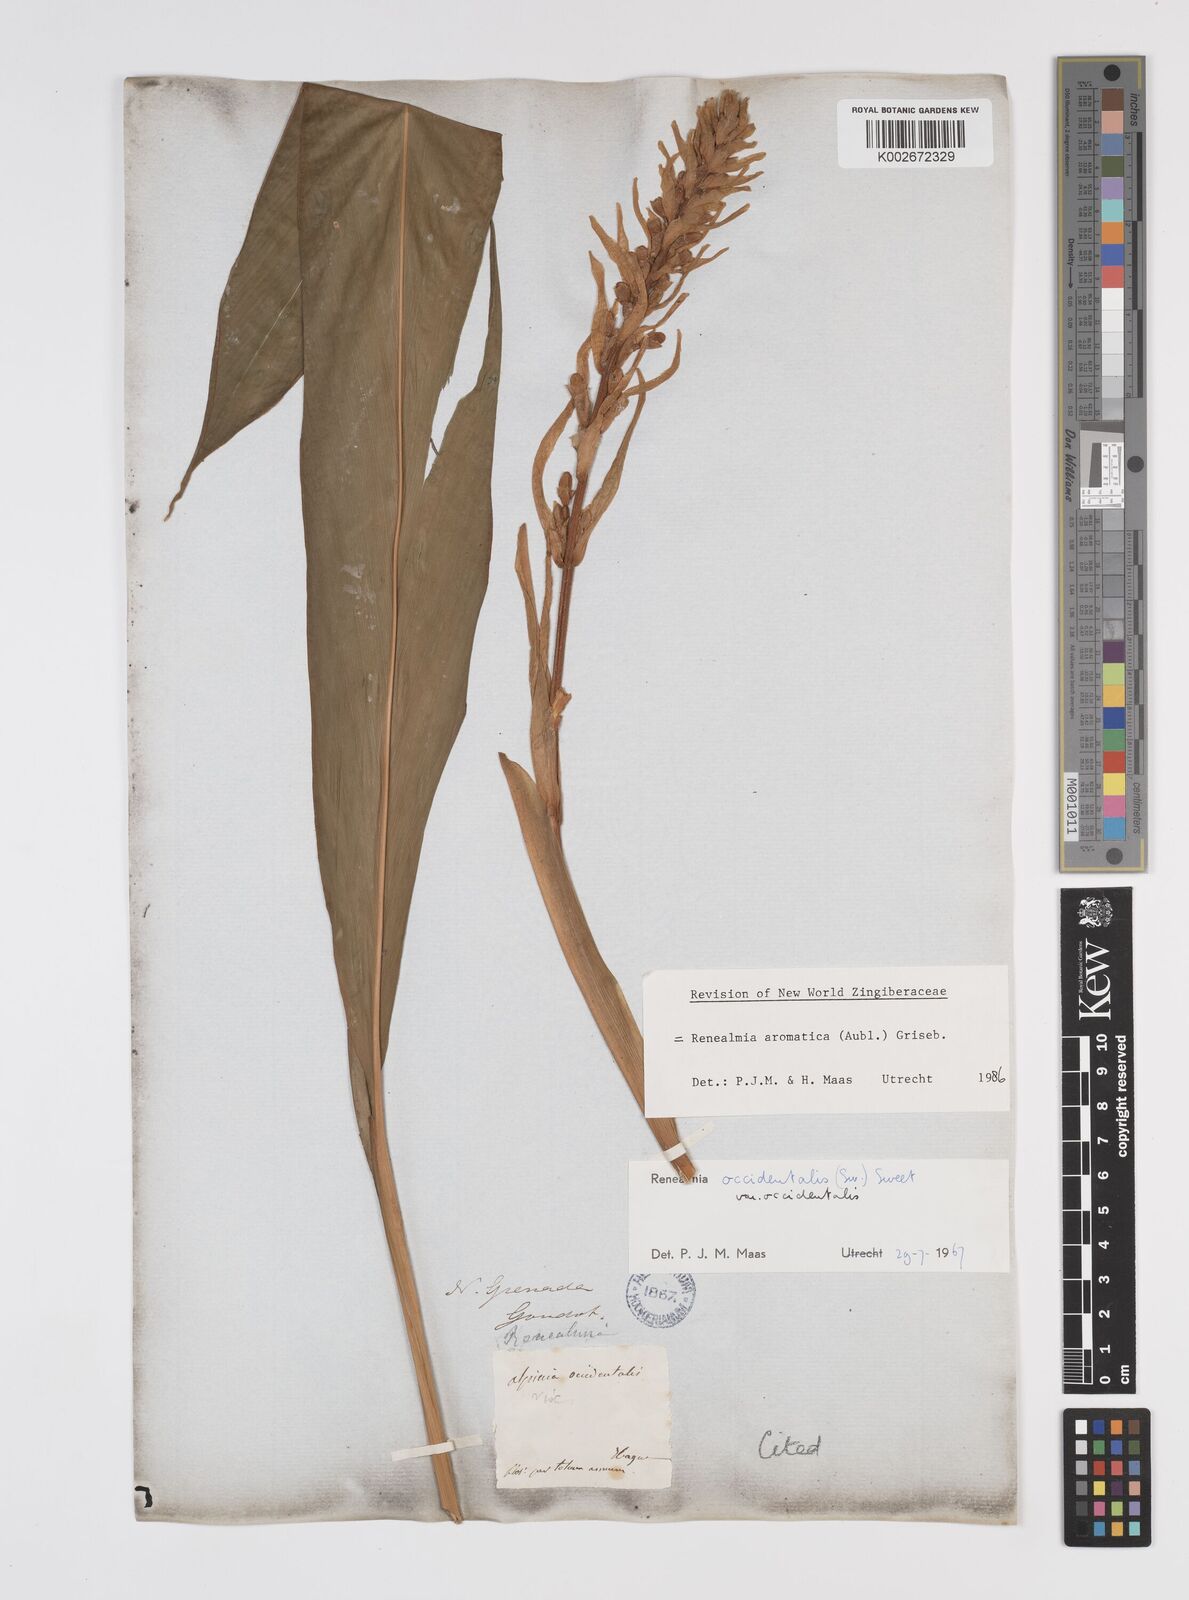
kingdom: Plantae
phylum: Tracheophyta
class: Liliopsida
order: Zingiberales
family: Zingiberaceae
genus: Renealmia
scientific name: Renealmia aromatica
